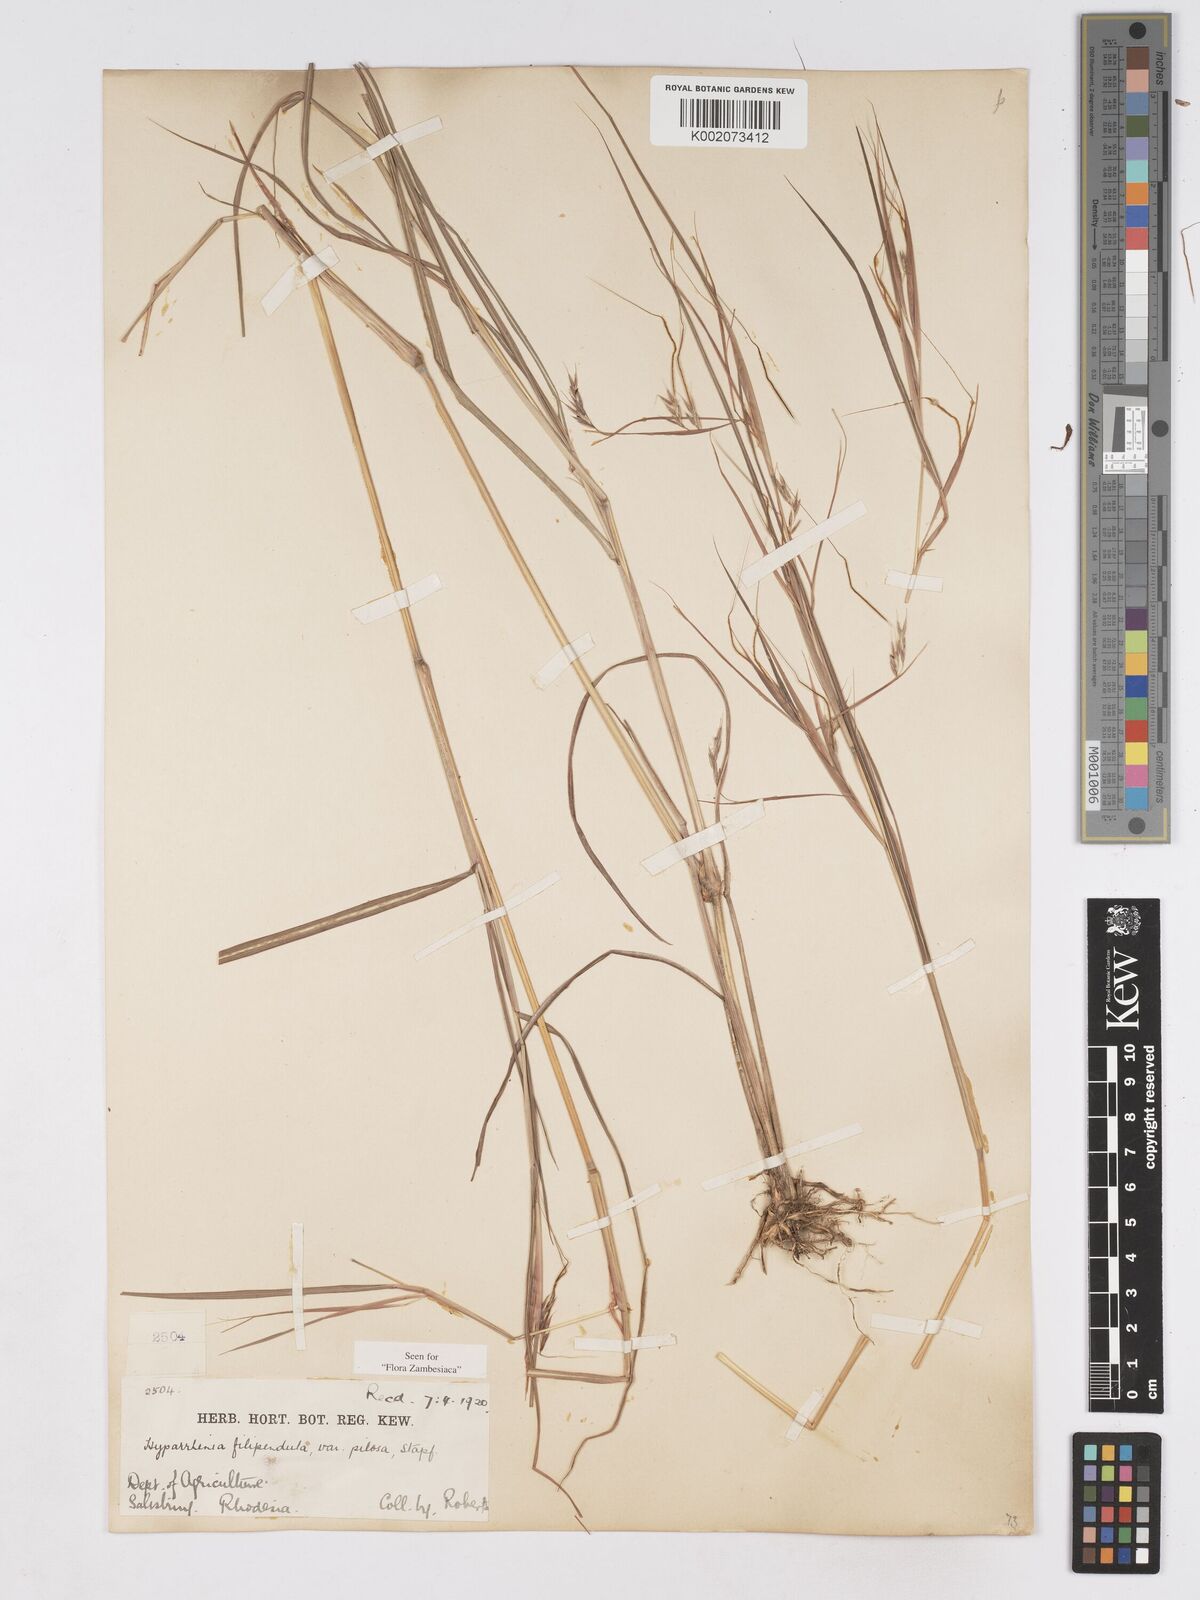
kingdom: Plantae
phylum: Tracheophyta
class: Liliopsida
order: Poales
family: Poaceae
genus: Hyparrhenia
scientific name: Hyparrhenia filipendula
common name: Tambookie grass
